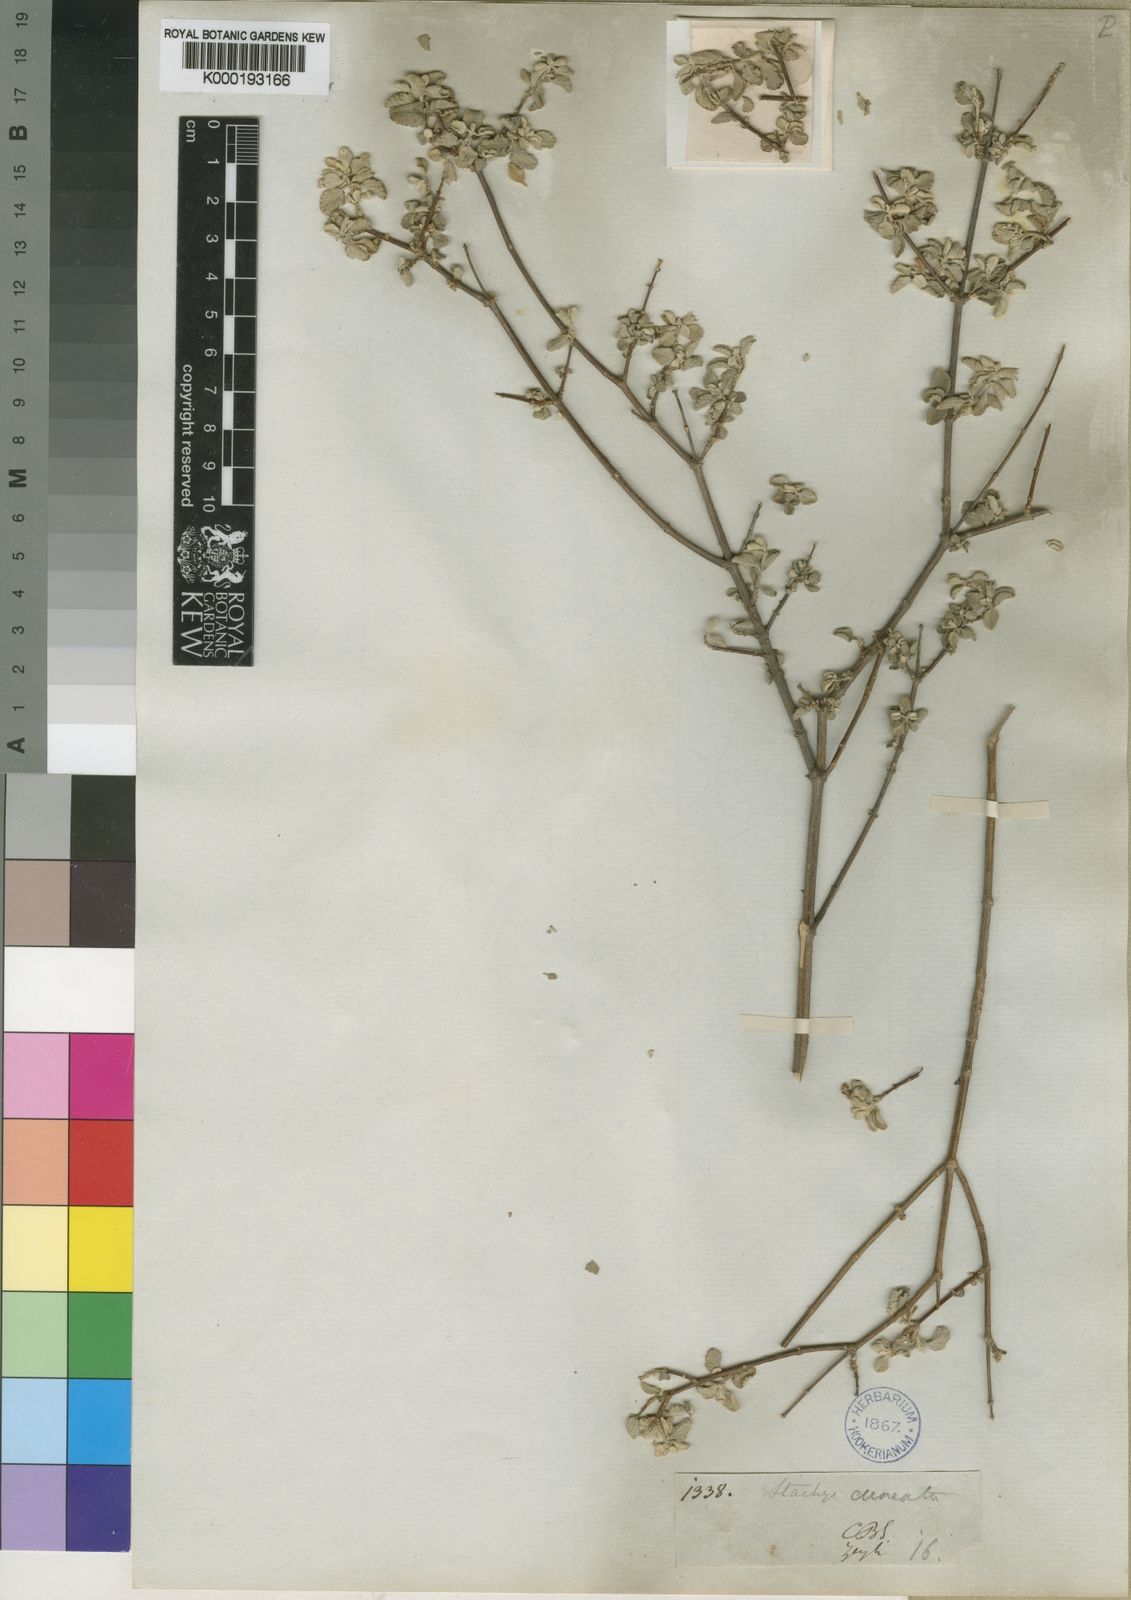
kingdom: Plantae
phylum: Tracheophyta
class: Magnoliopsida
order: Lamiales
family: Lamiaceae
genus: Stachys
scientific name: Stachys zeyheri
